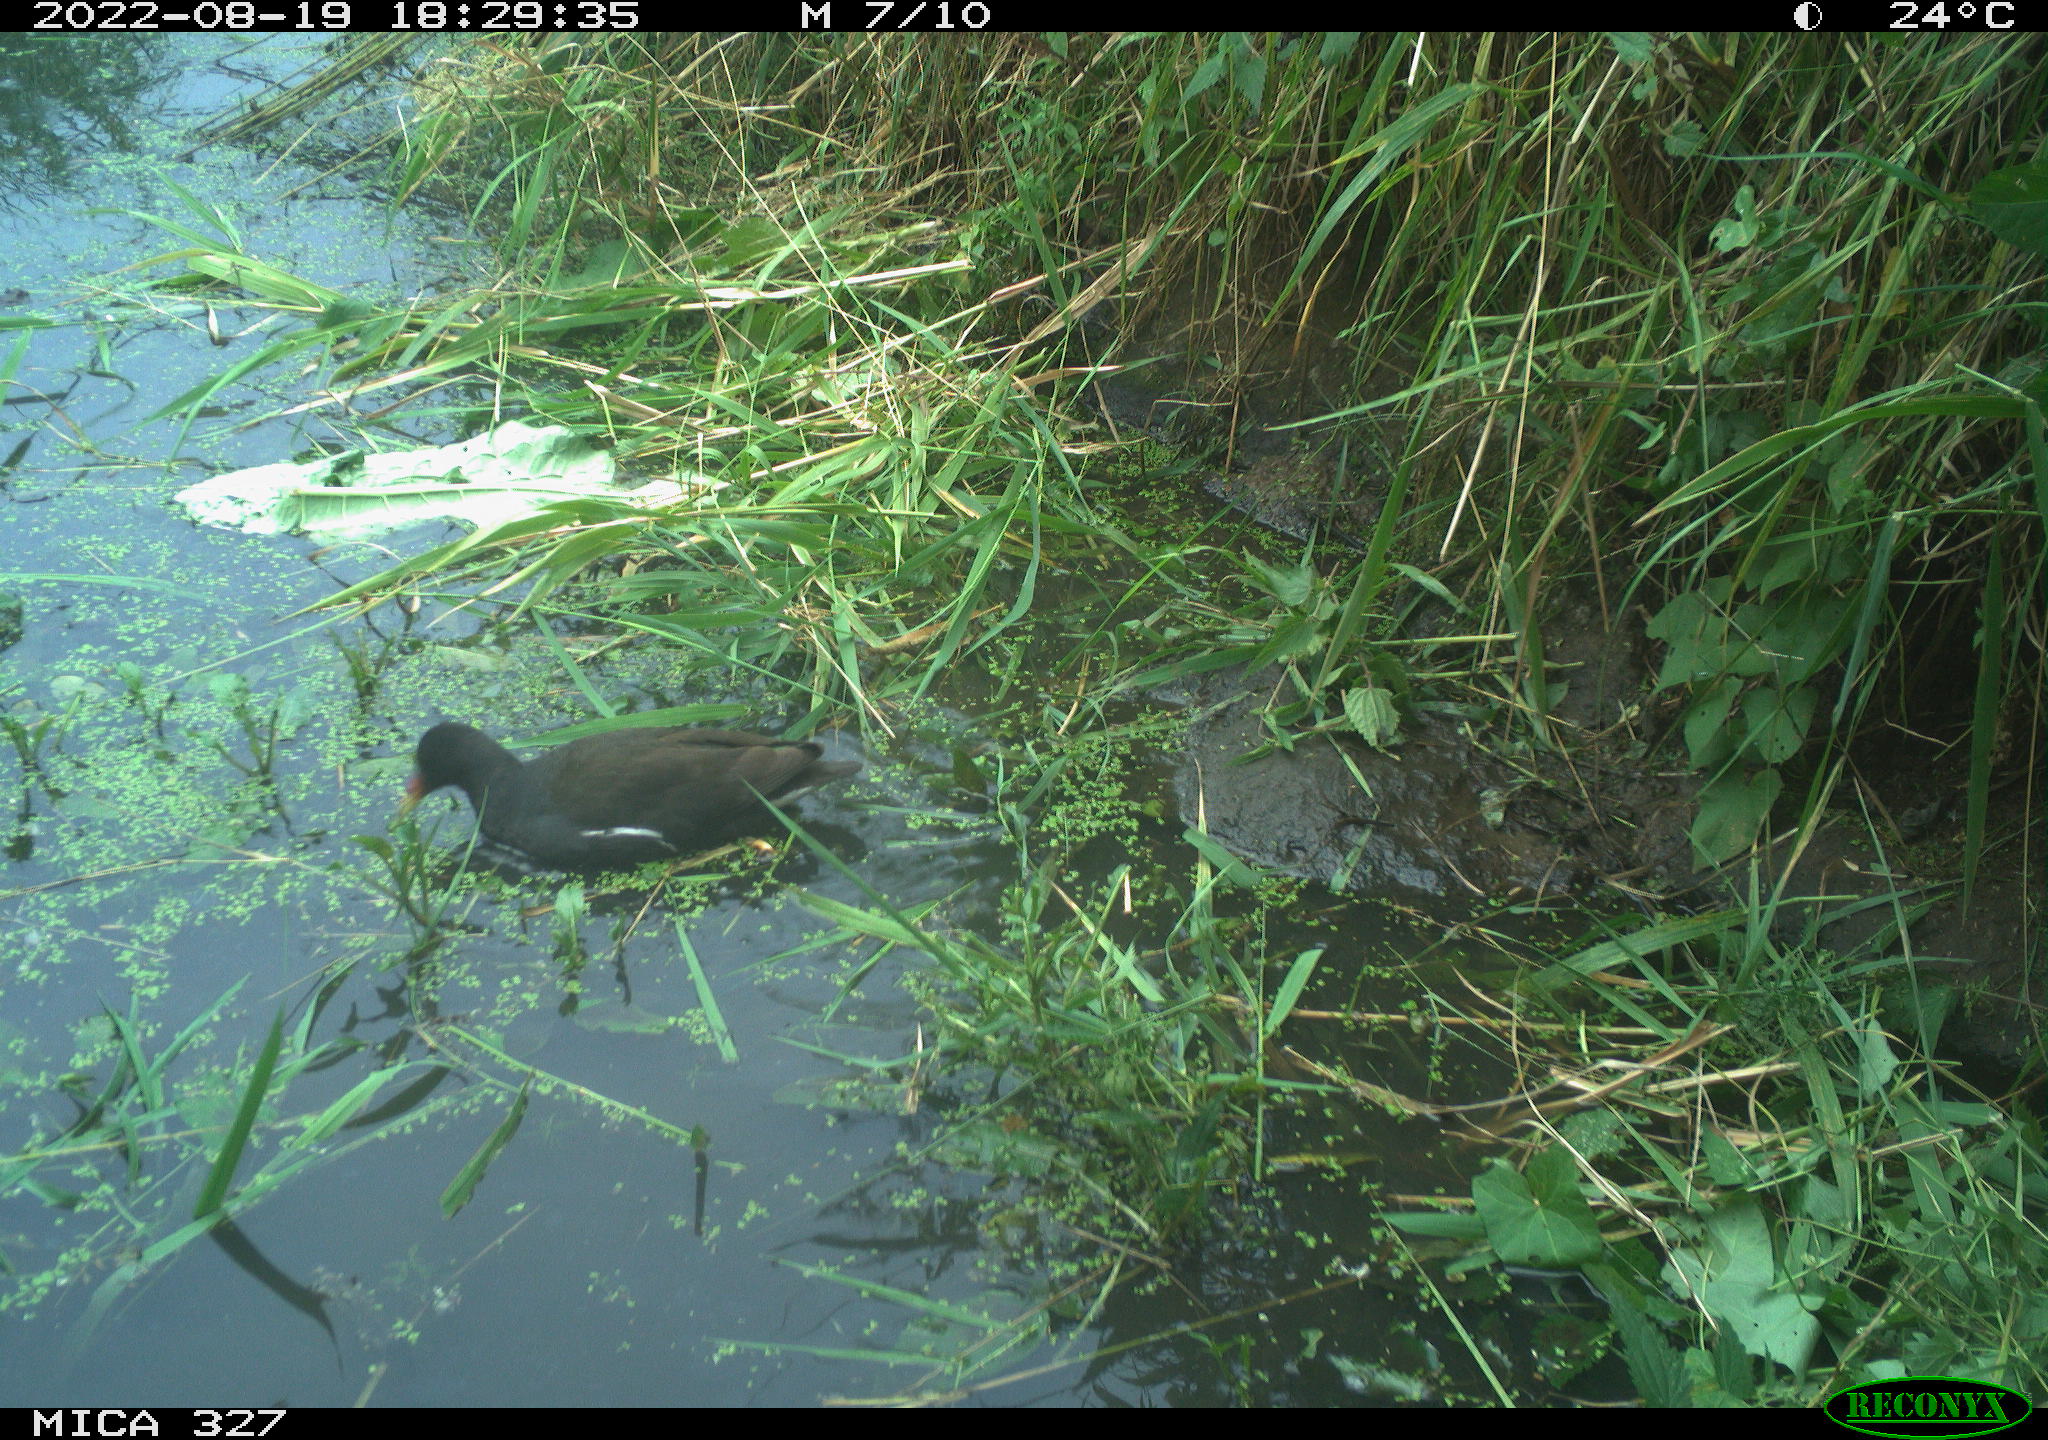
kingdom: Animalia
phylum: Chordata
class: Aves
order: Gruiformes
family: Rallidae
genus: Gallinula
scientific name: Gallinula chloropus
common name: Common moorhen
